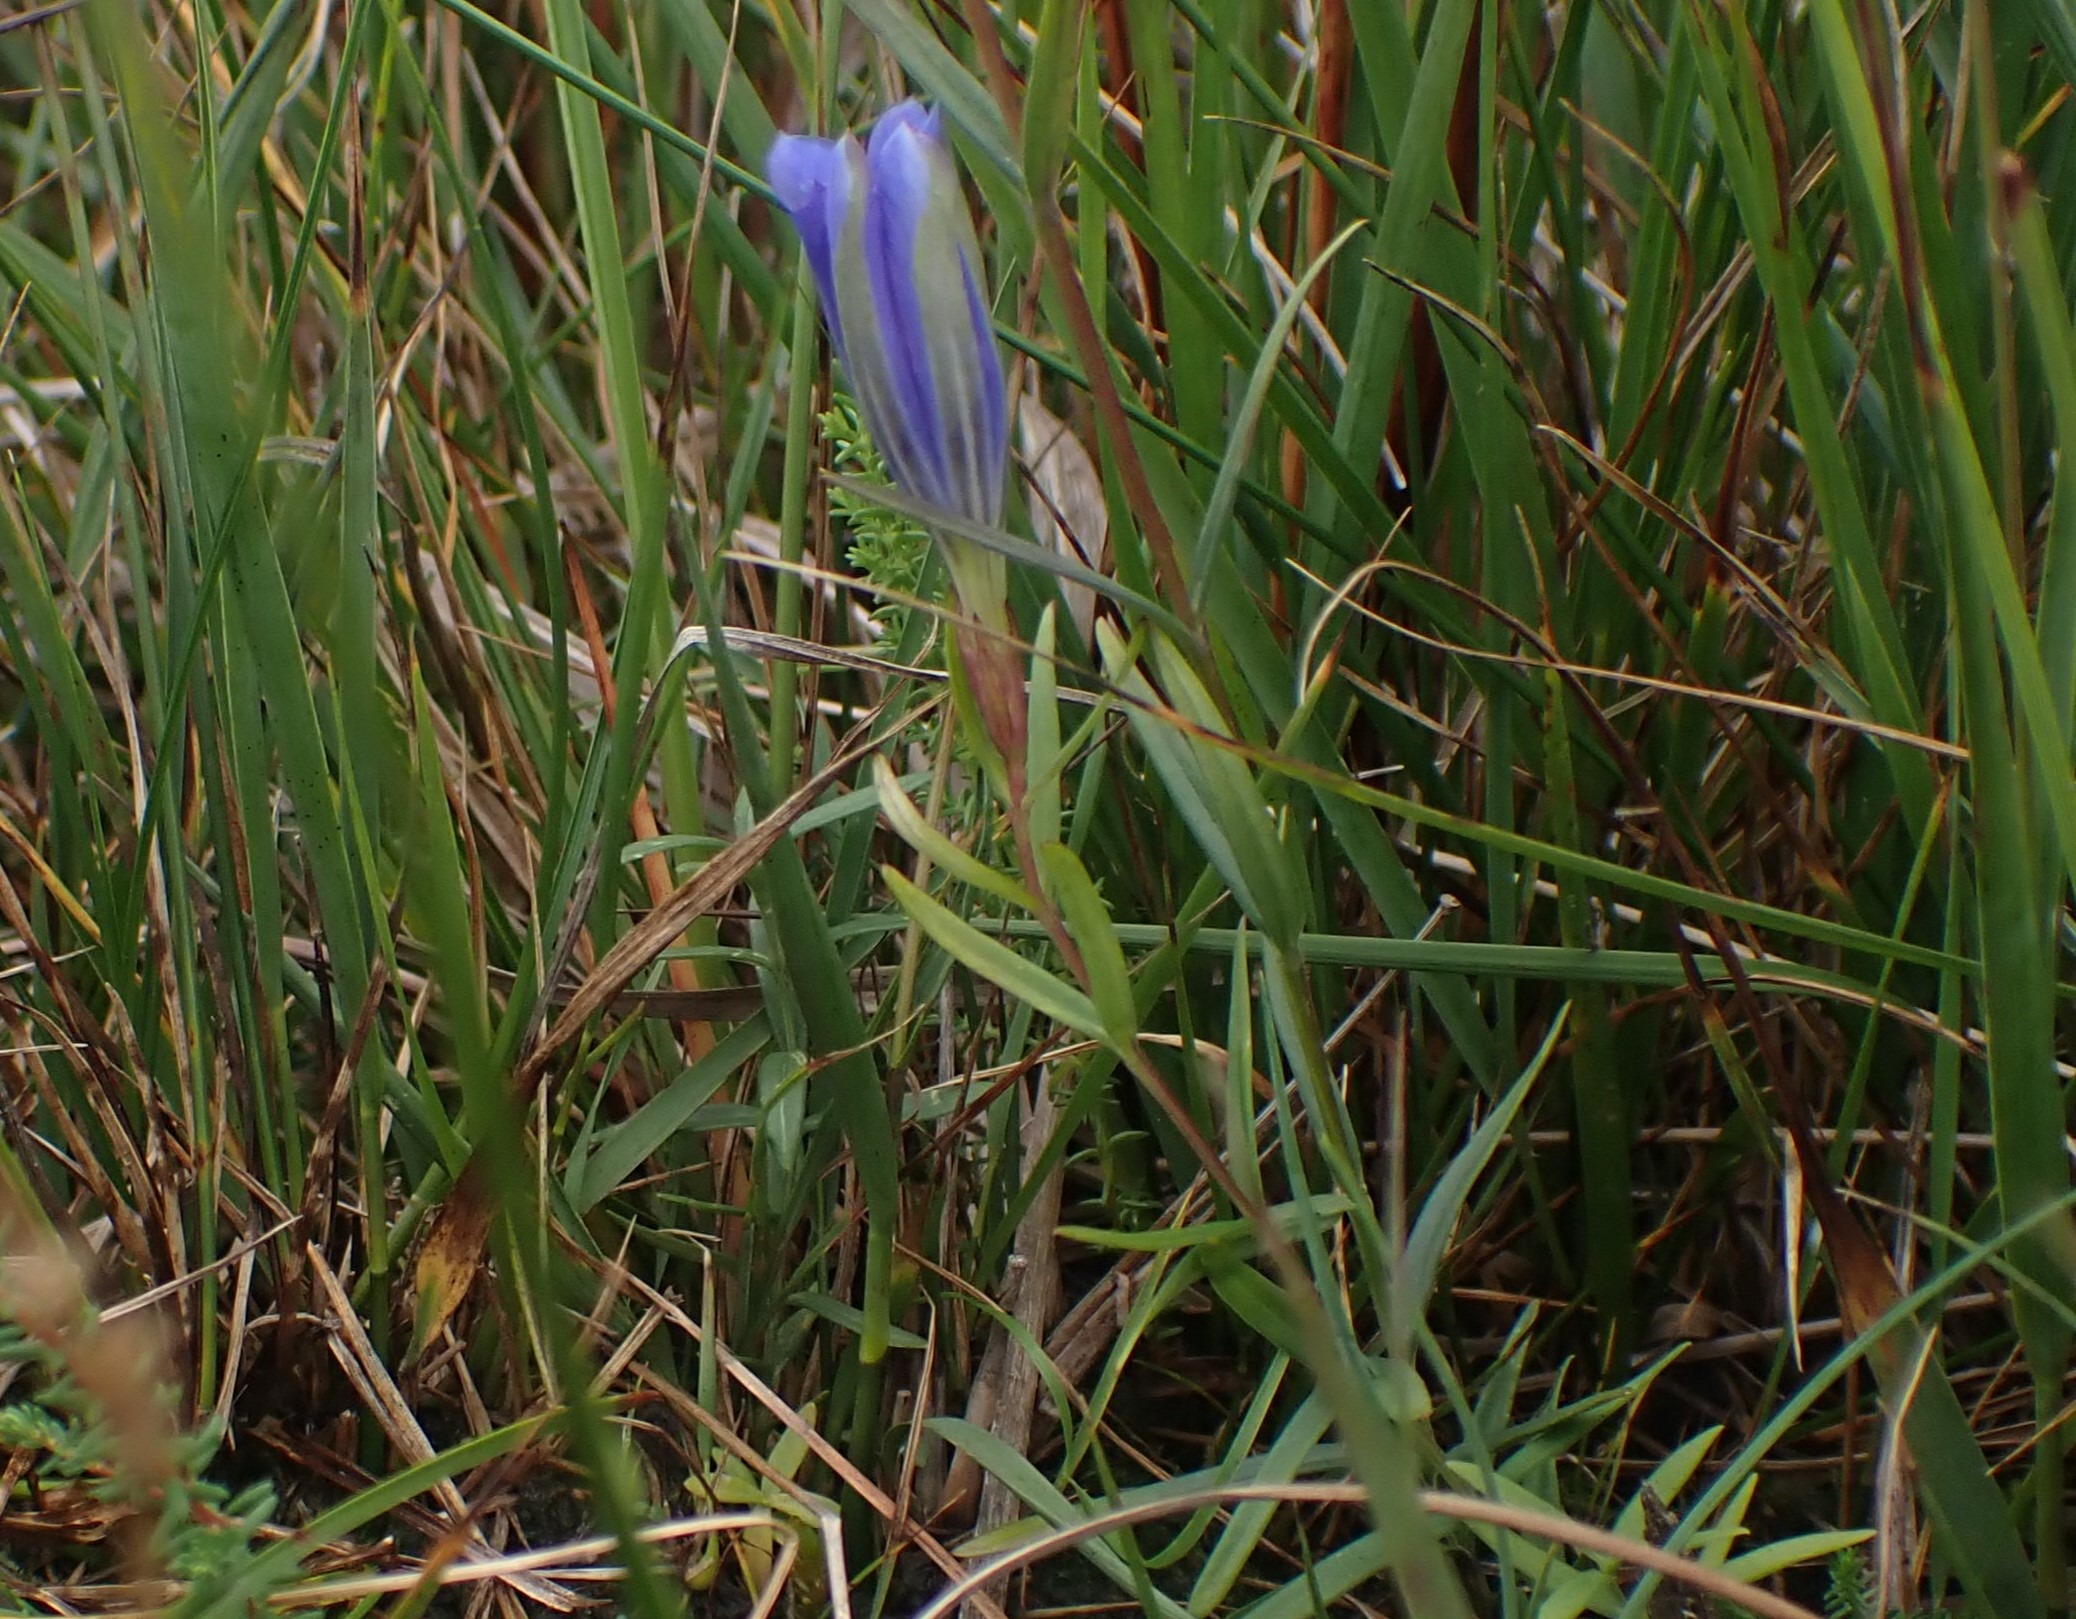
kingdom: Plantae
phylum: Tracheophyta
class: Magnoliopsida
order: Gentianales
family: Gentianaceae
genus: Gentiana
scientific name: Gentiana pneumonanthe
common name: Klokke-ensian
